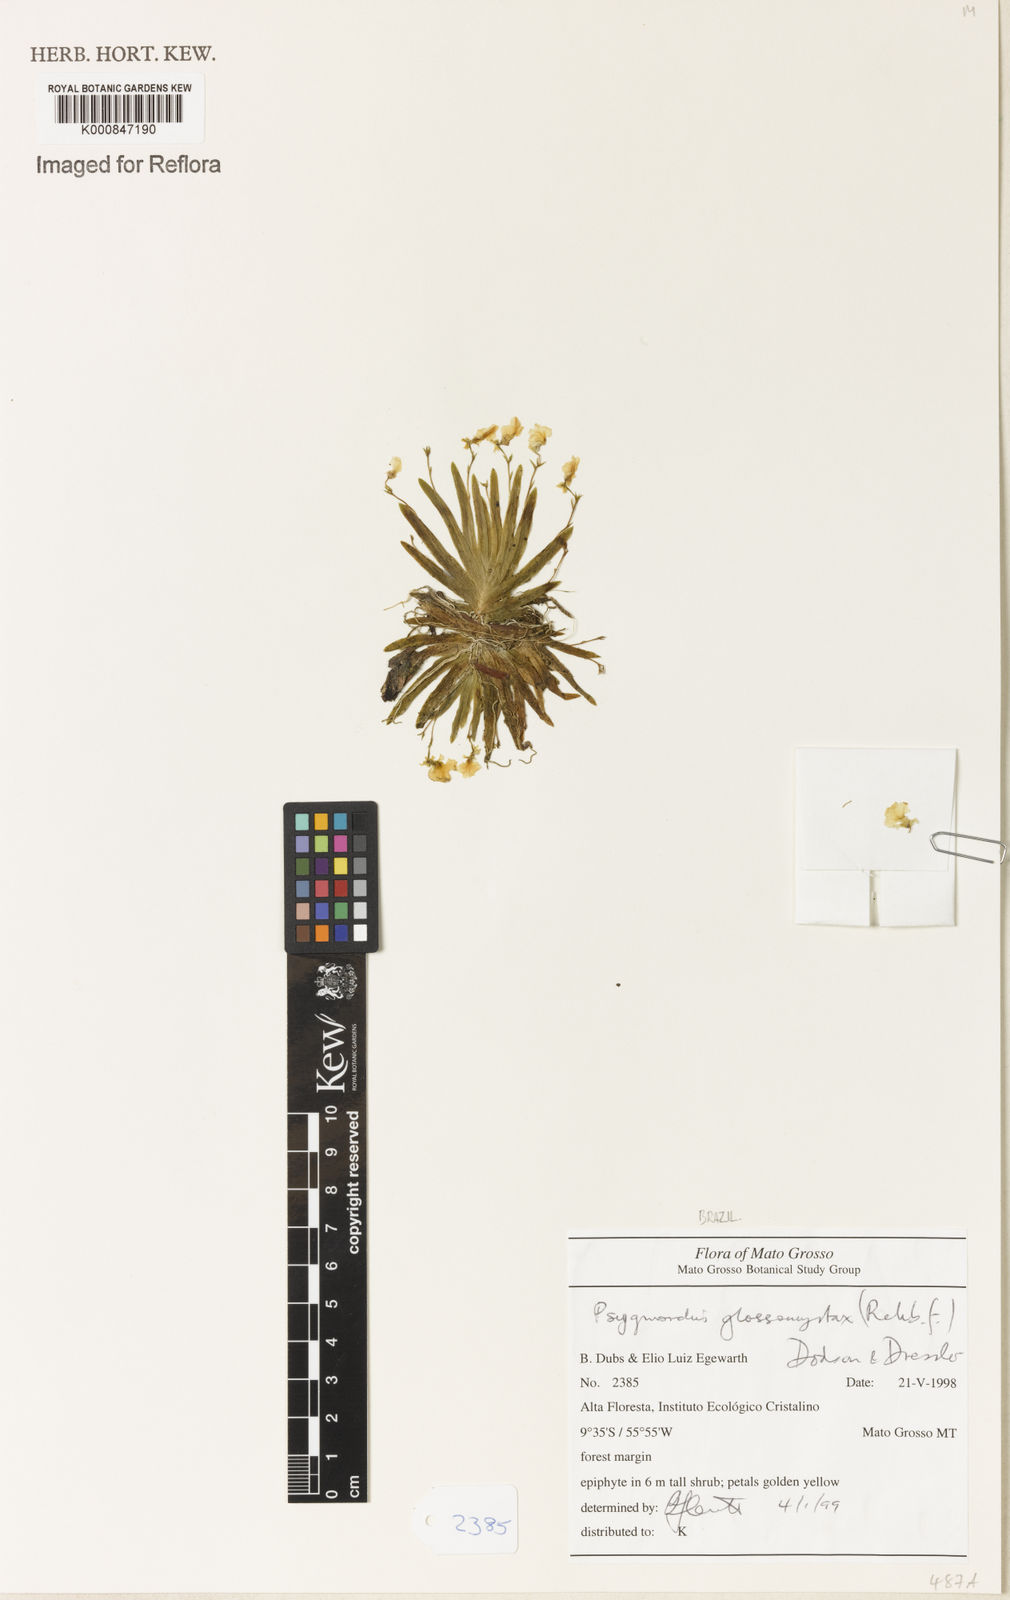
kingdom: Plantae
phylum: Tracheophyta
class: Liliopsida
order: Asparagales
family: Orchidaceae
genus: Erycina
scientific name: Erycina
